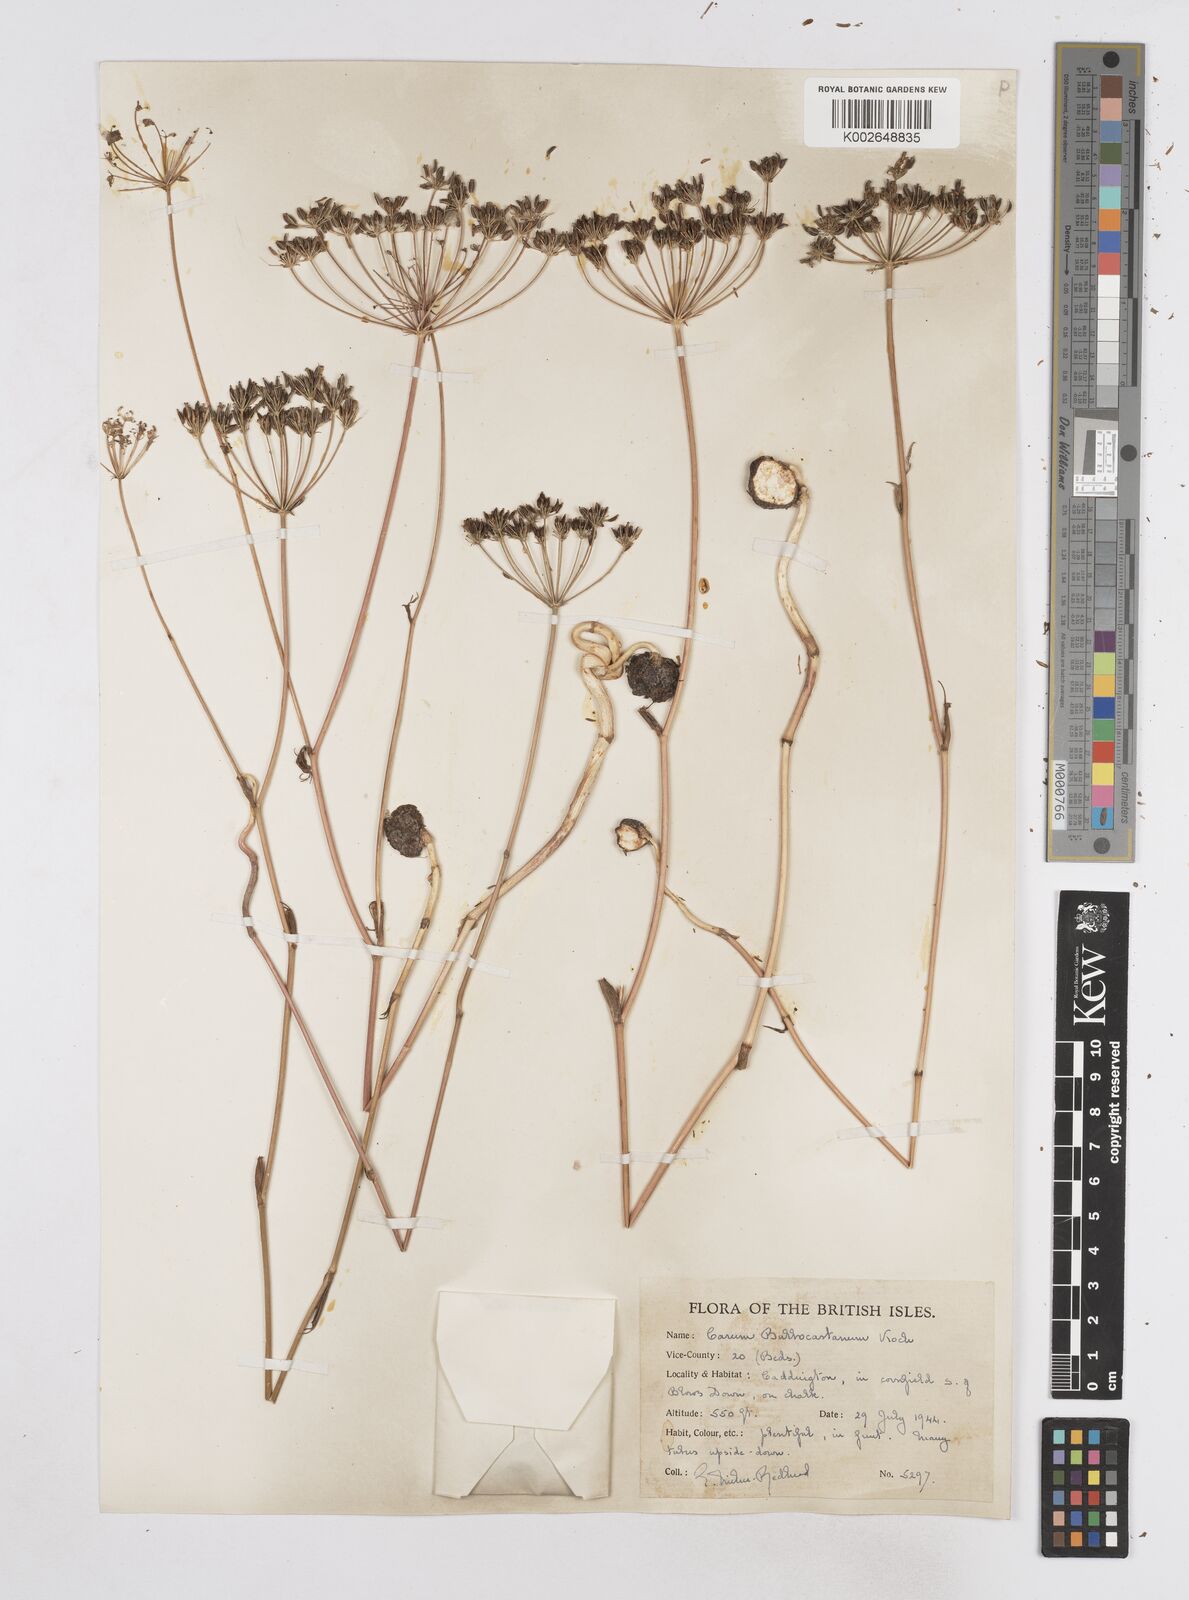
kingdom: Plantae
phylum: Tracheophyta
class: Magnoliopsida
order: Apiales
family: Apiaceae
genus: Bunium
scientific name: Bunium bulbocastanum
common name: Great pignut
